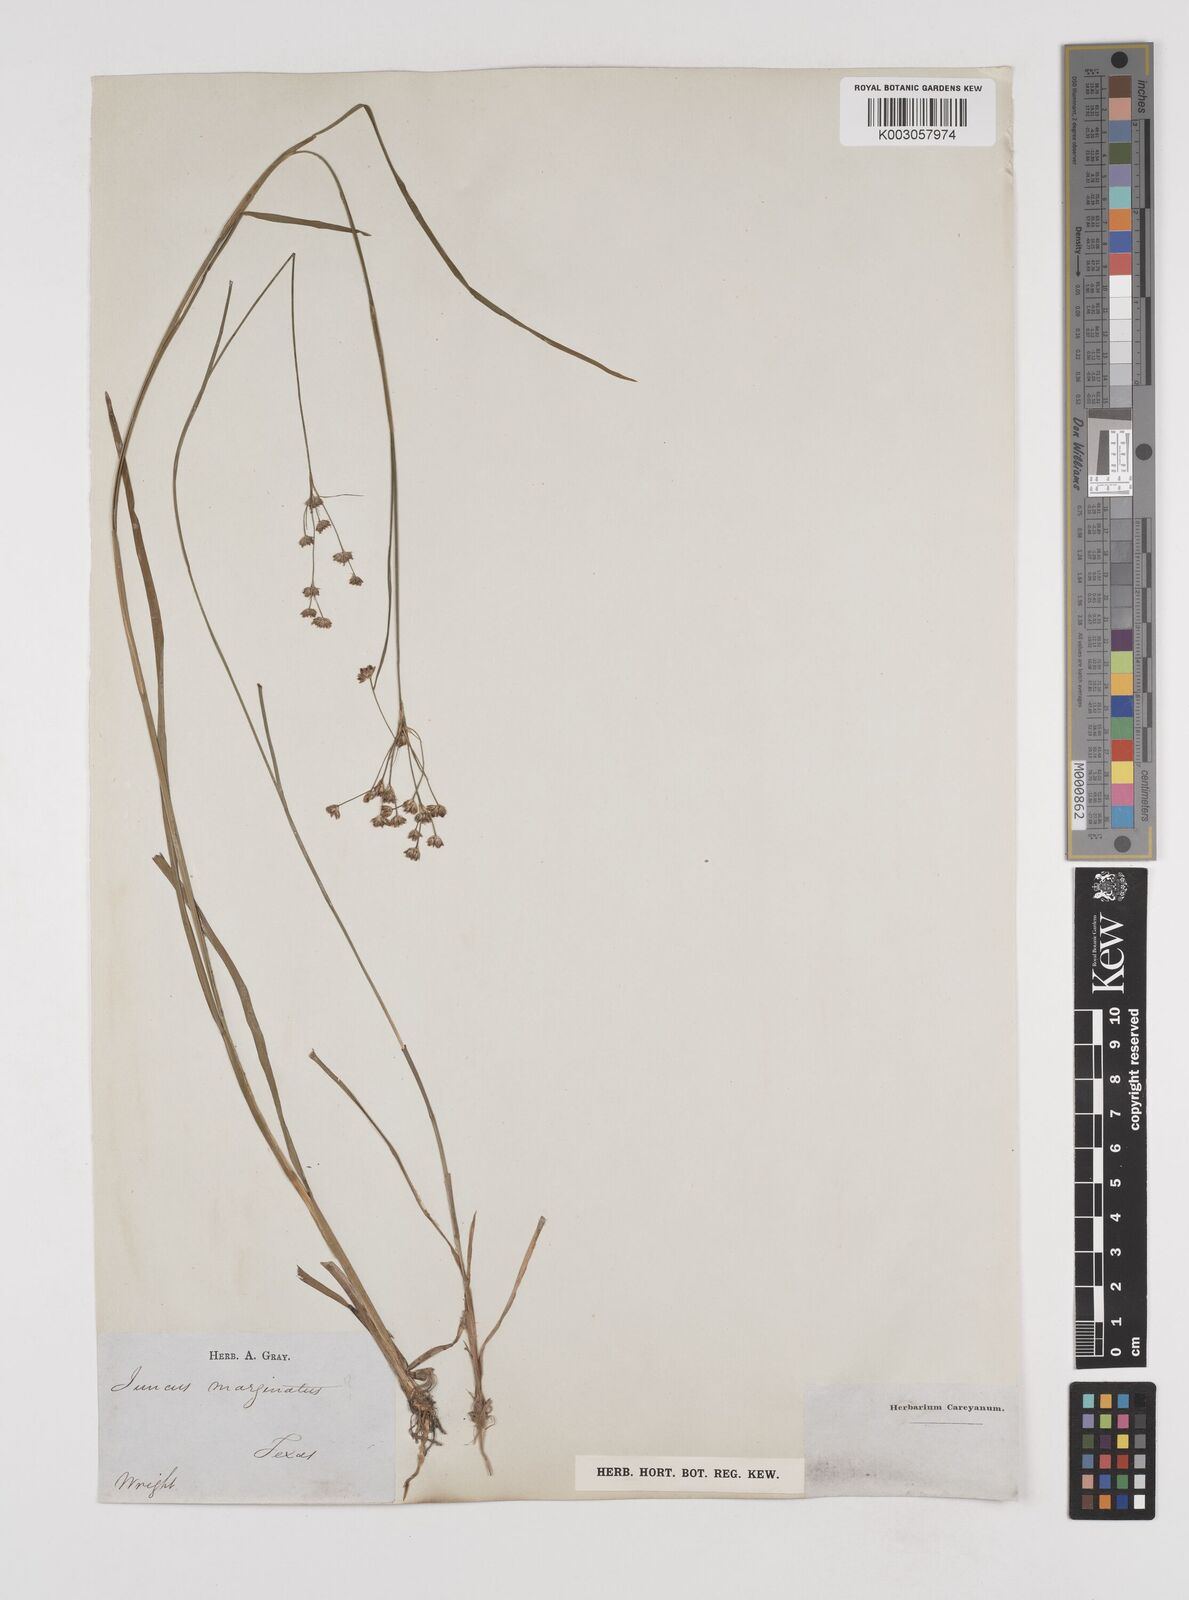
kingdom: Plantae
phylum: Tracheophyta
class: Liliopsida
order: Poales
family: Juncaceae
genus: Juncus
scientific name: Juncus marginatus
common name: Grass-leaf rush
